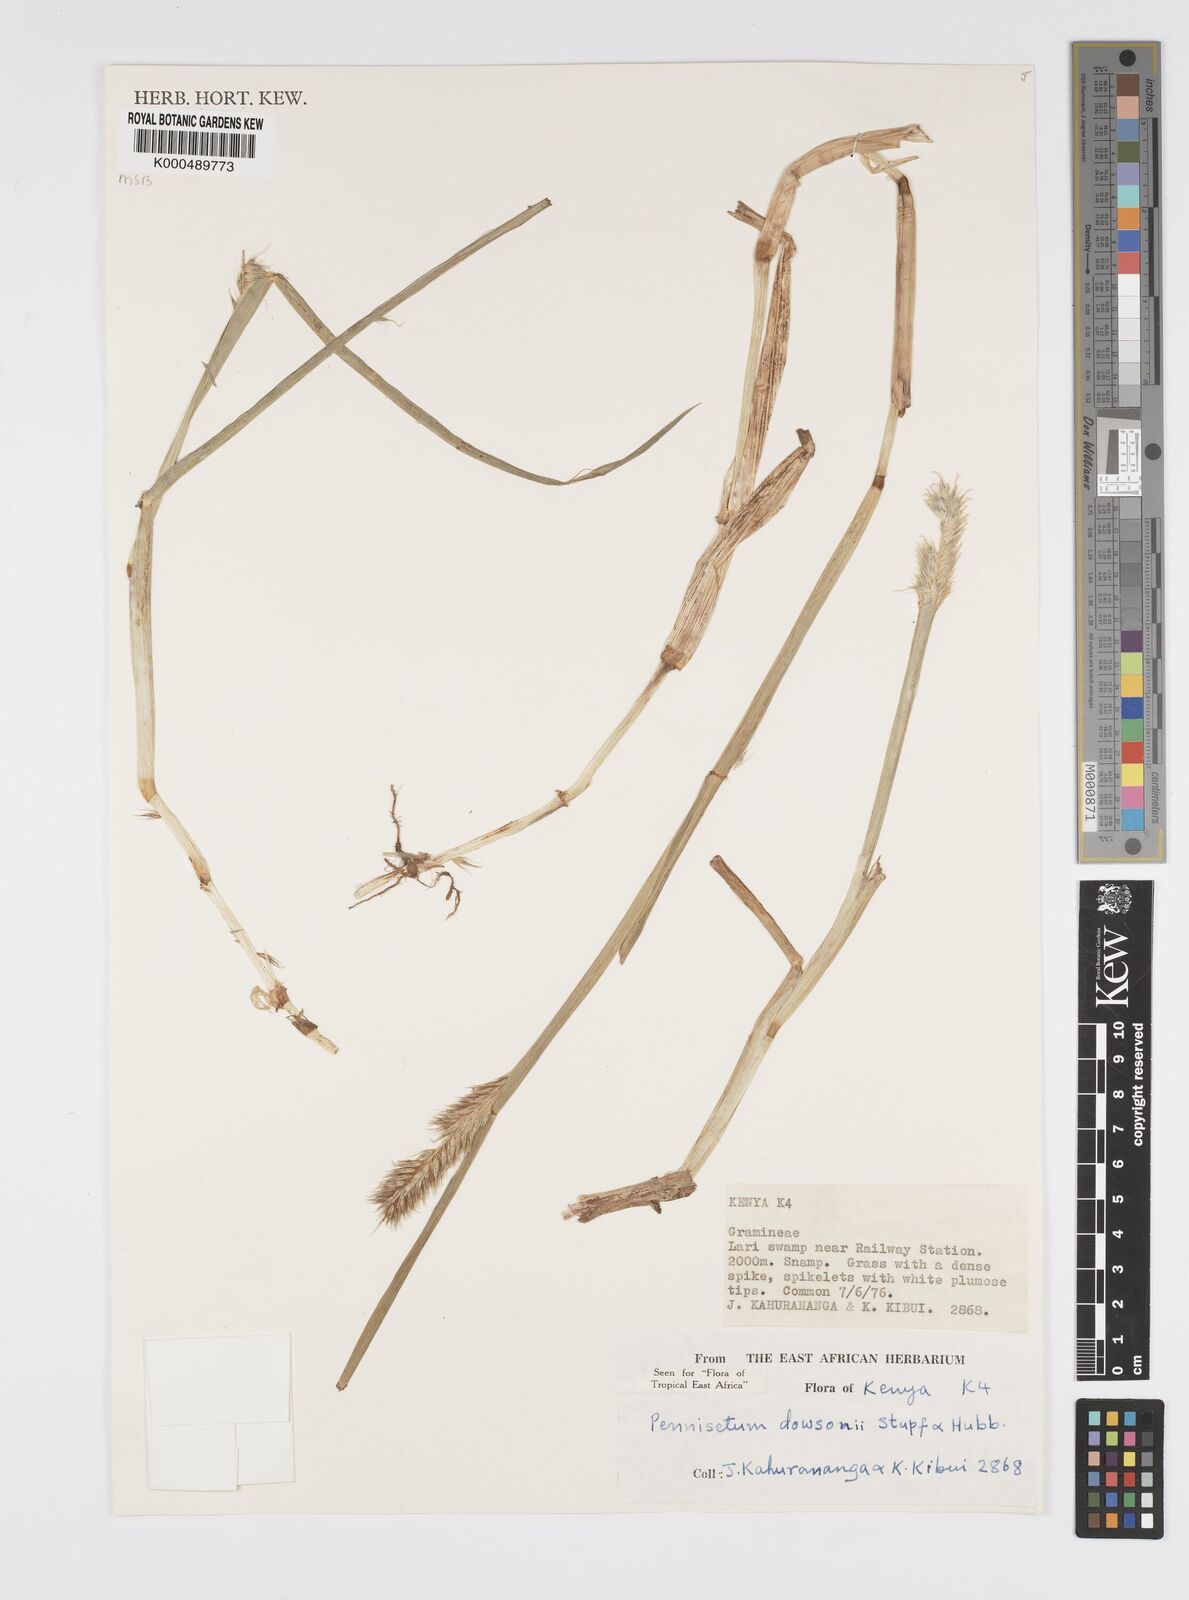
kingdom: Plantae
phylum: Tracheophyta
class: Liliopsida
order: Poales
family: Poaceae
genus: Cenchrus
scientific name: Cenchrus Pennisetum spec
